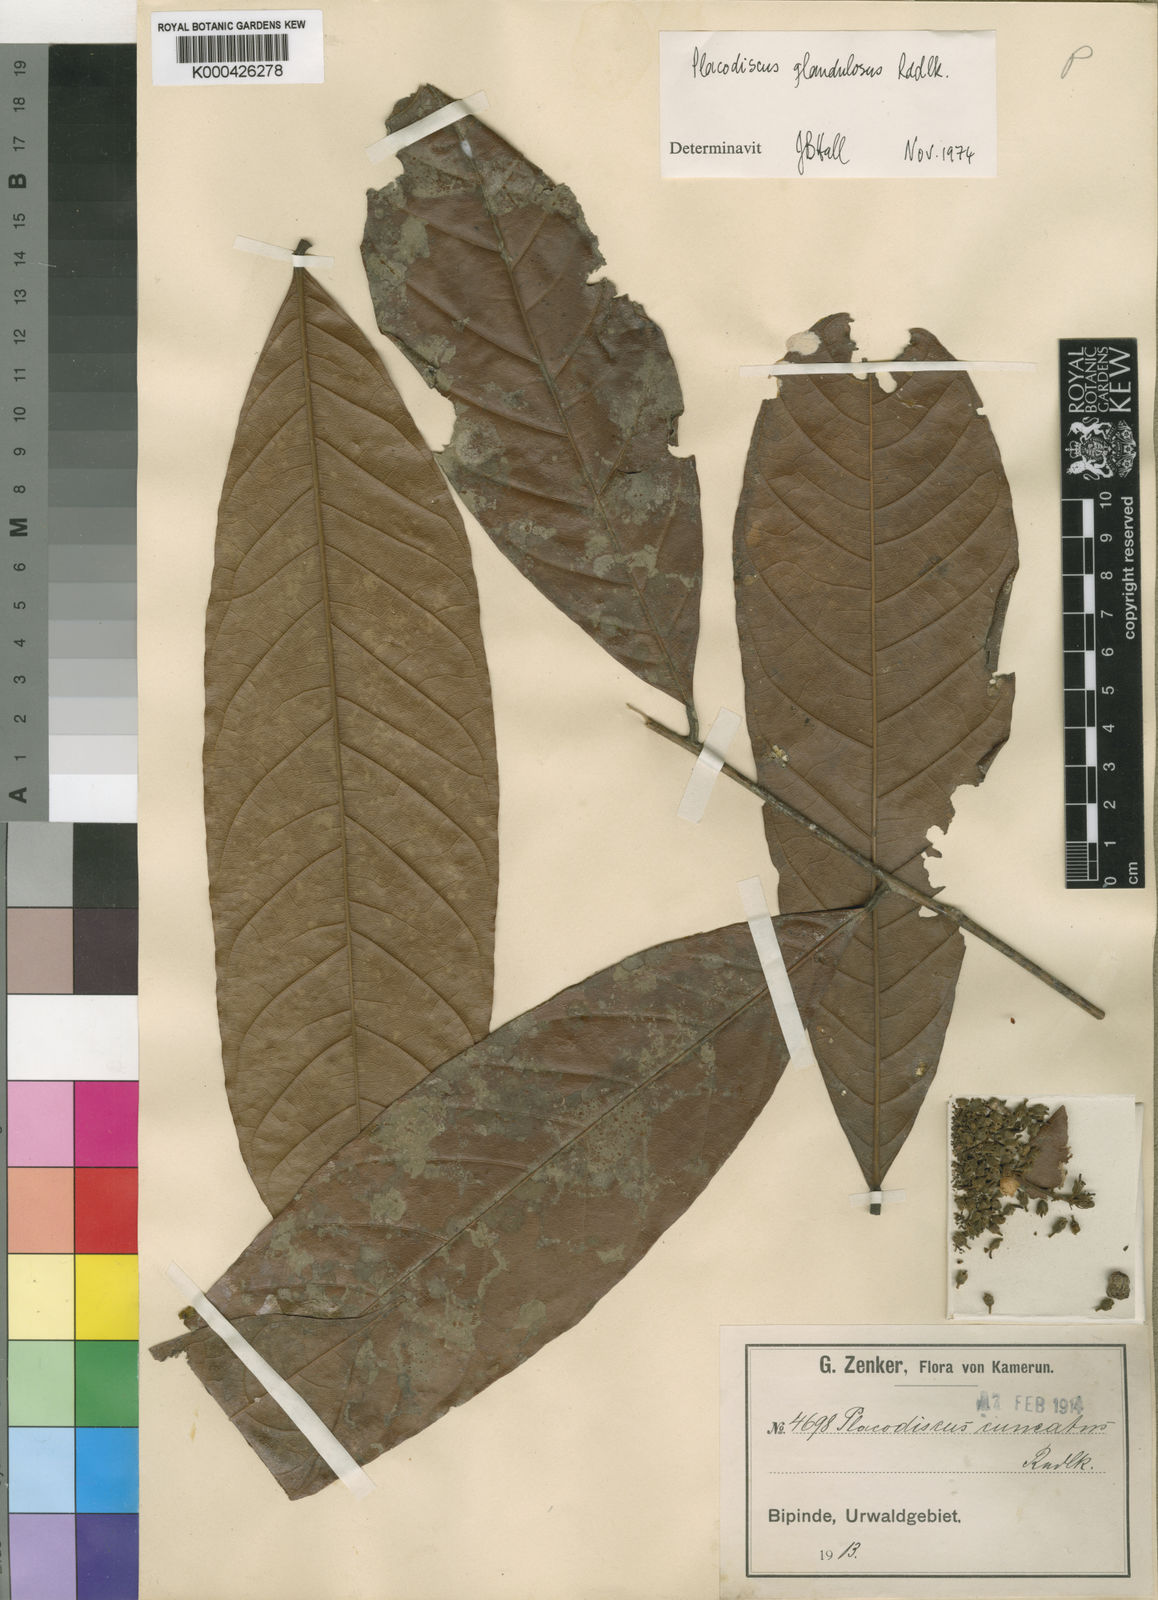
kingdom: Plantae
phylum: Tracheophyta
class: Magnoliopsida
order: Sapindales
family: Sapindaceae
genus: Placodiscus
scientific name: Placodiscus
